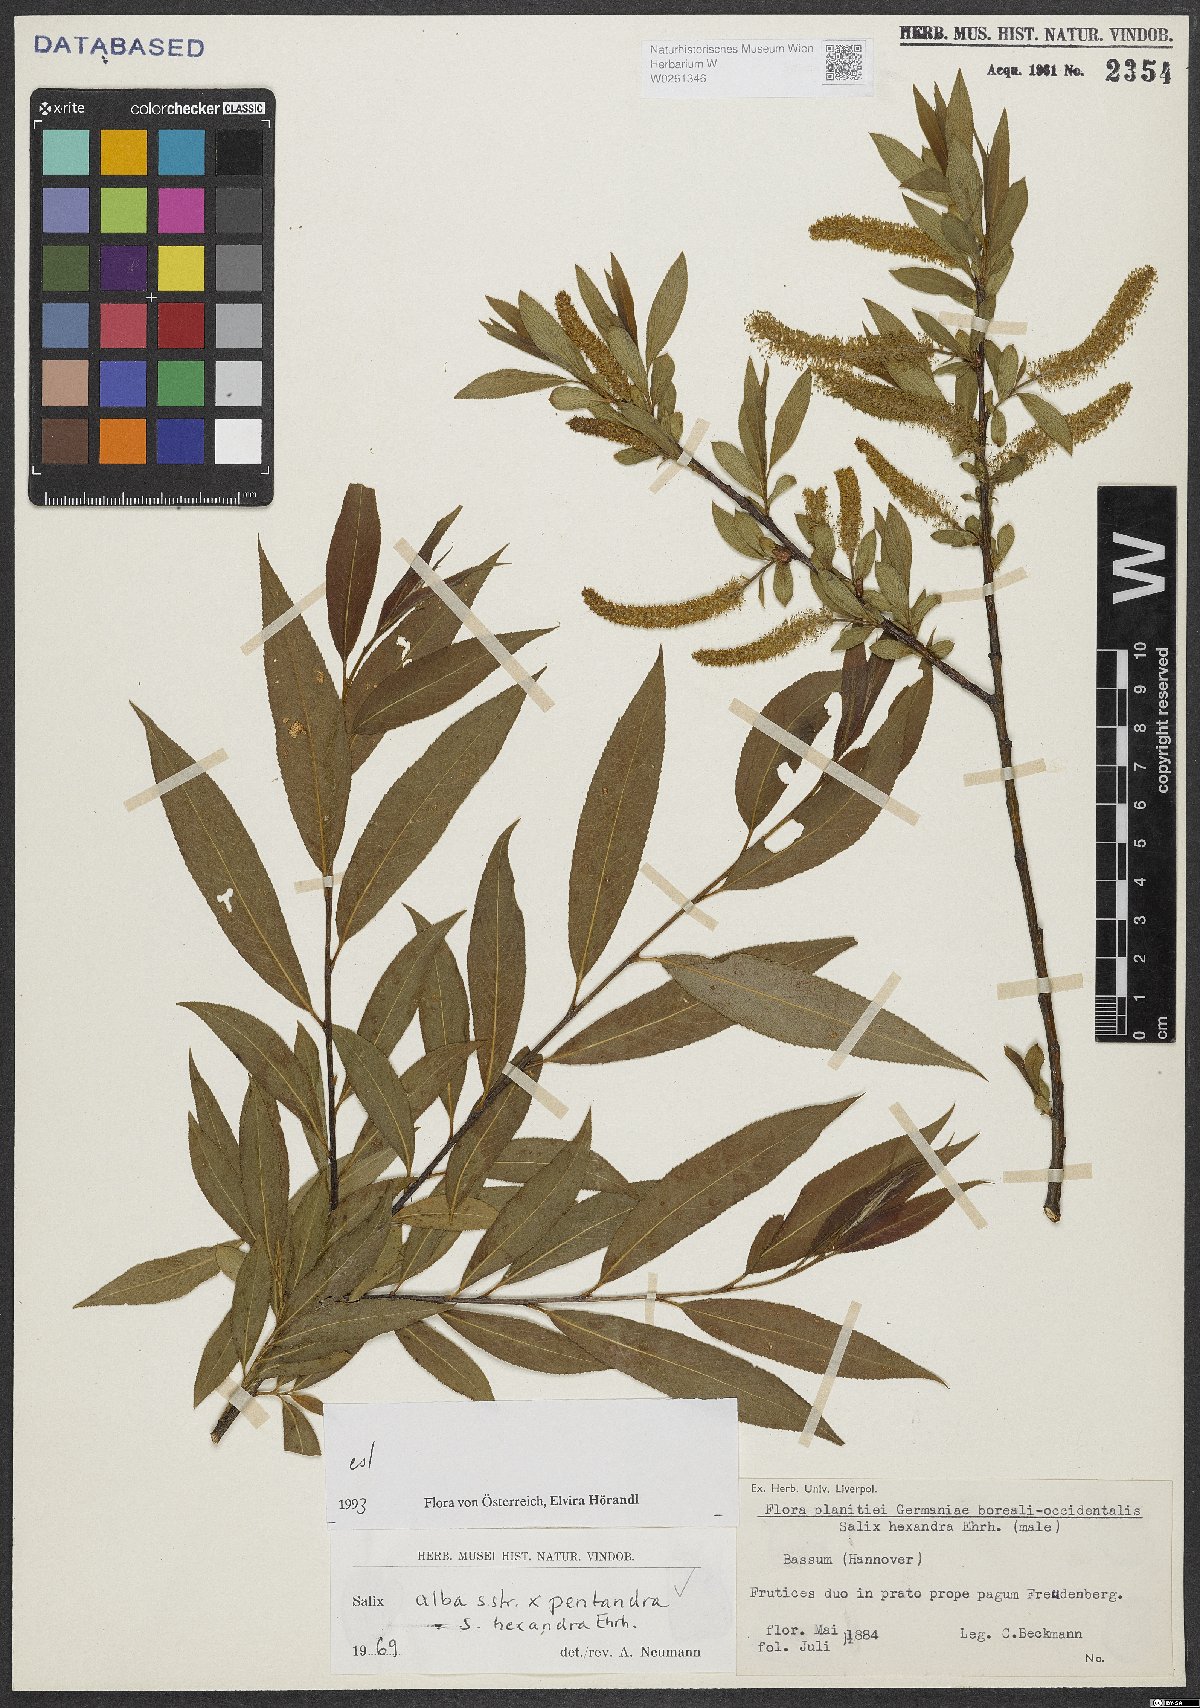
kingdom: Plantae
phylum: Tracheophyta
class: Magnoliopsida
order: Malpighiales
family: Salicaceae
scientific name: Salicaceae
